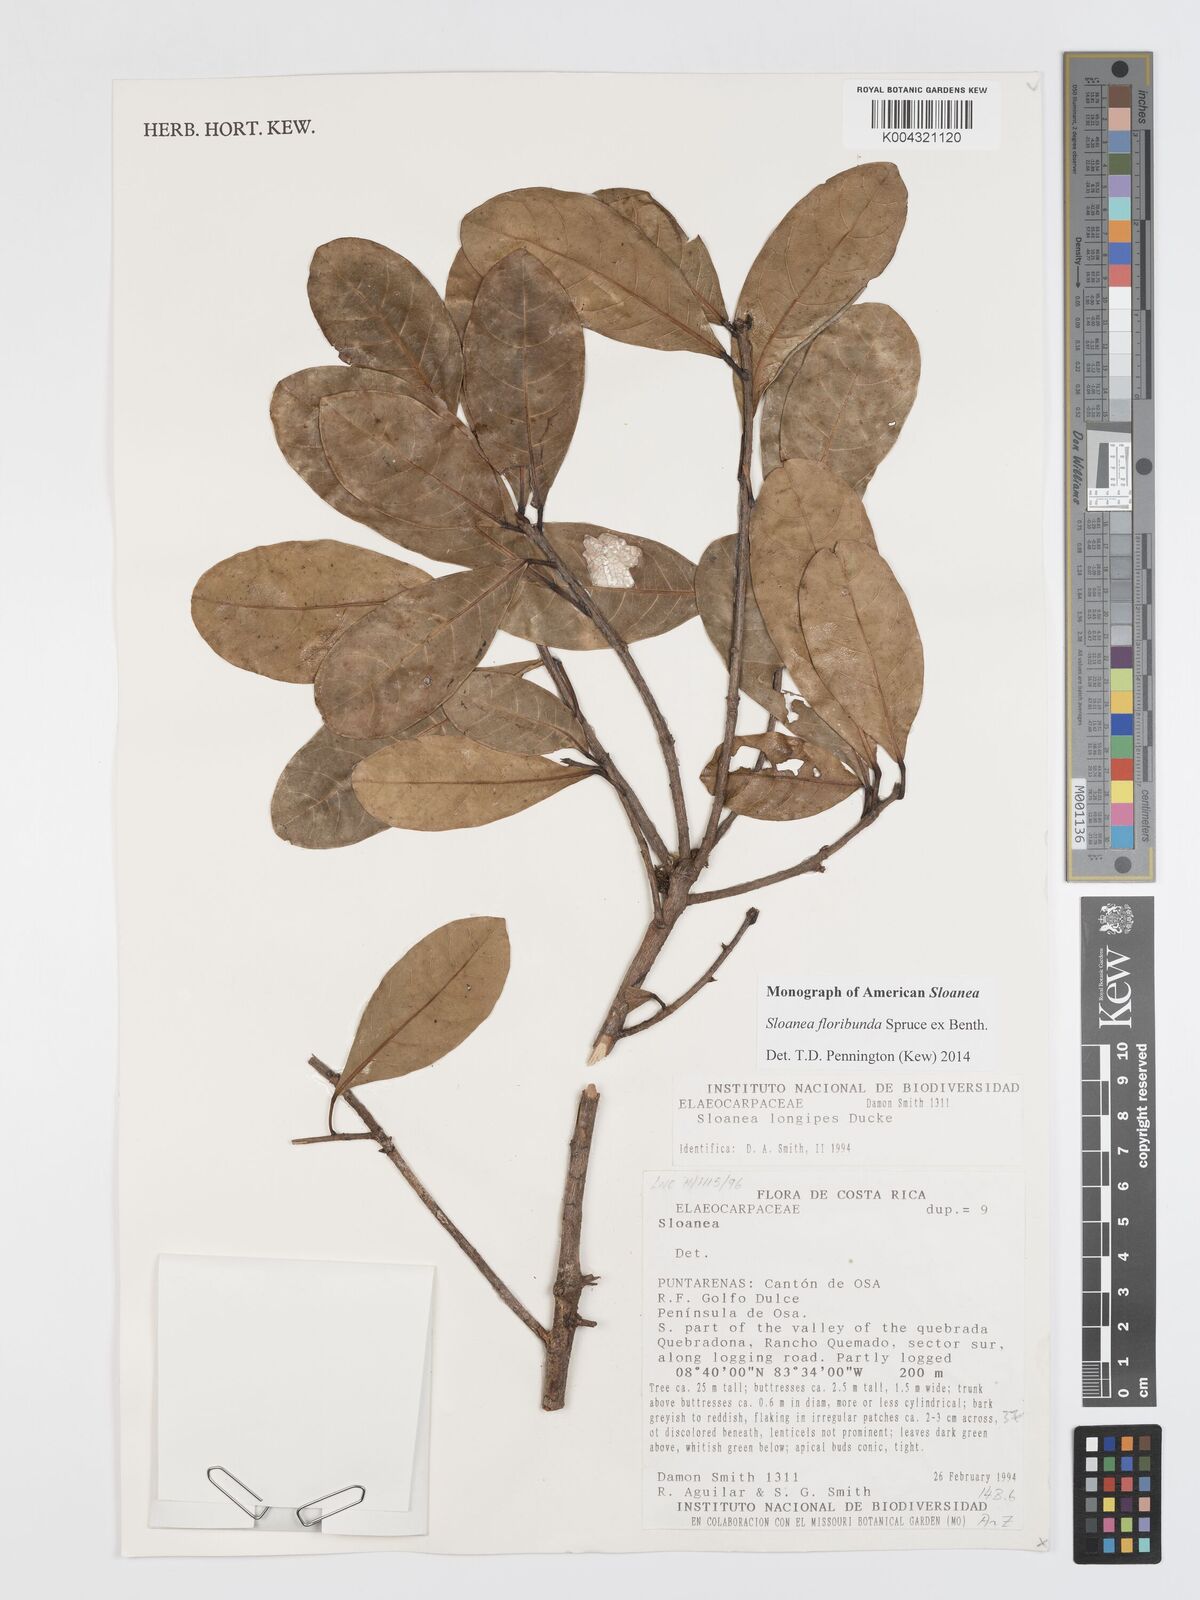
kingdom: Plantae
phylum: Tracheophyta
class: Magnoliopsida
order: Oxalidales
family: Elaeocarpaceae
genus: Sloanea
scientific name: Sloanea floribunda
